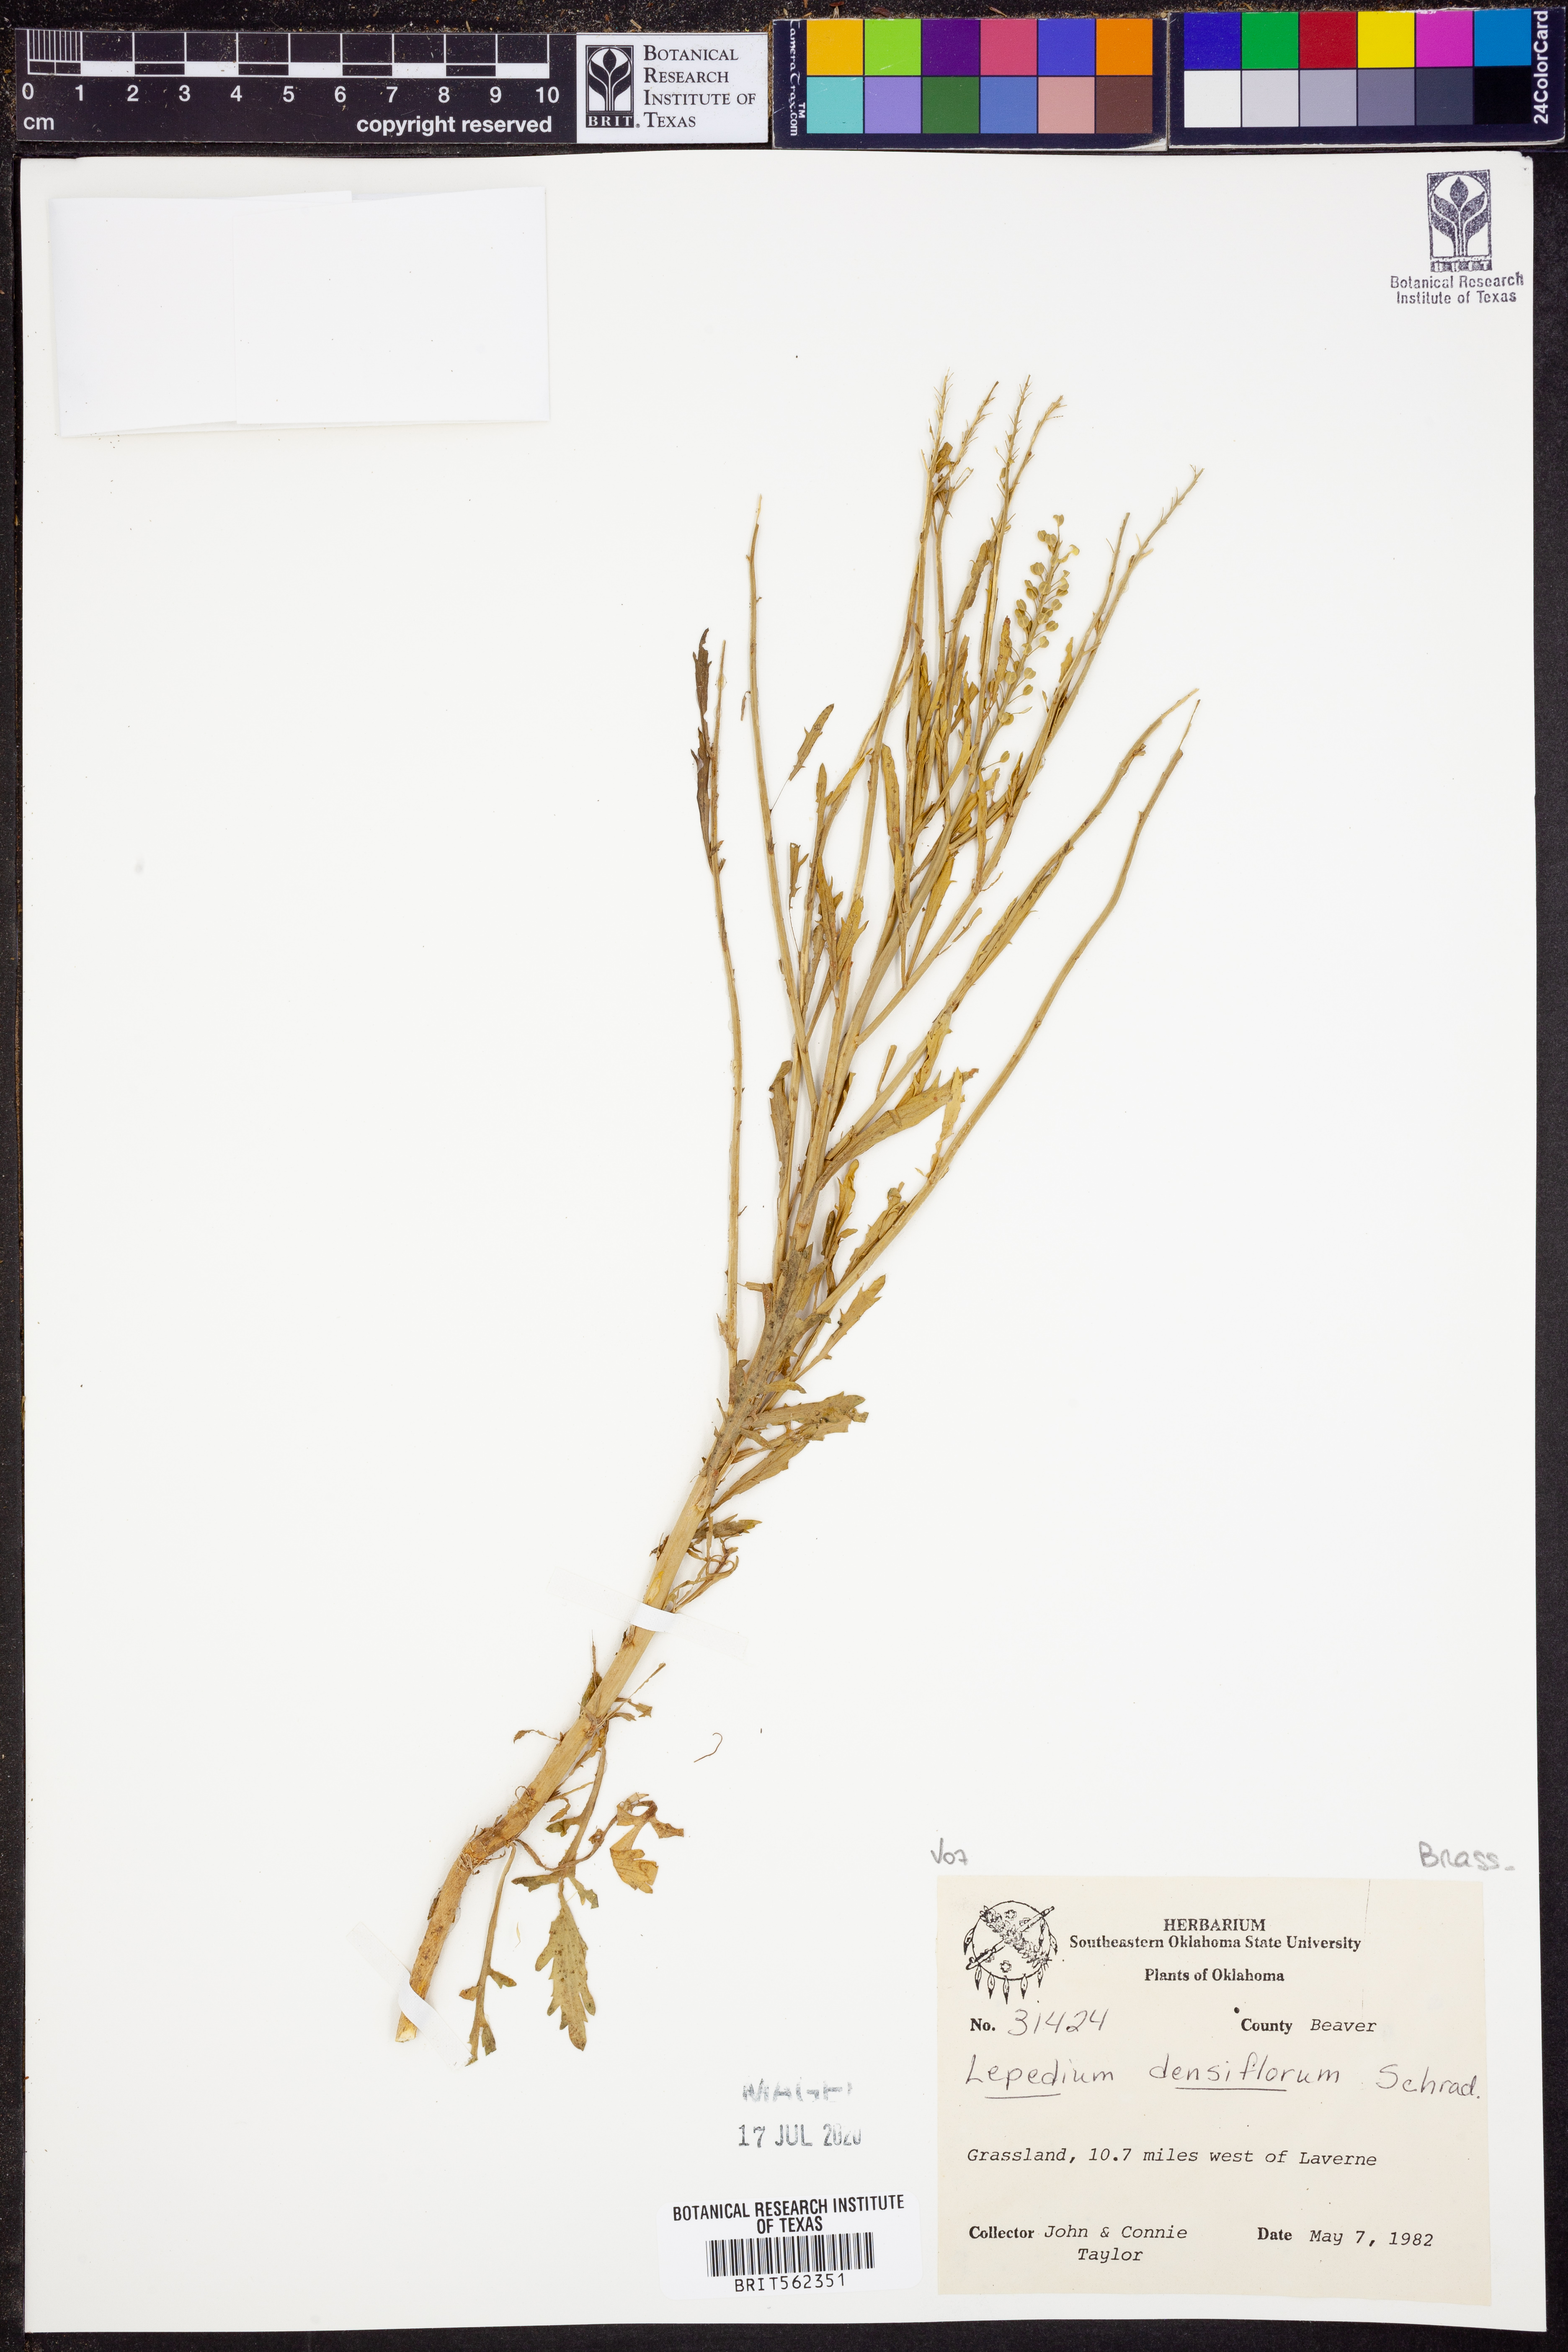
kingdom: Plantae
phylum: Tracheophyta
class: Magnoliopsida
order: Brassicales
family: Brassicaceae
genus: Lepidium
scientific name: Lepidium densiflorum
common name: Miner's pepperwort
